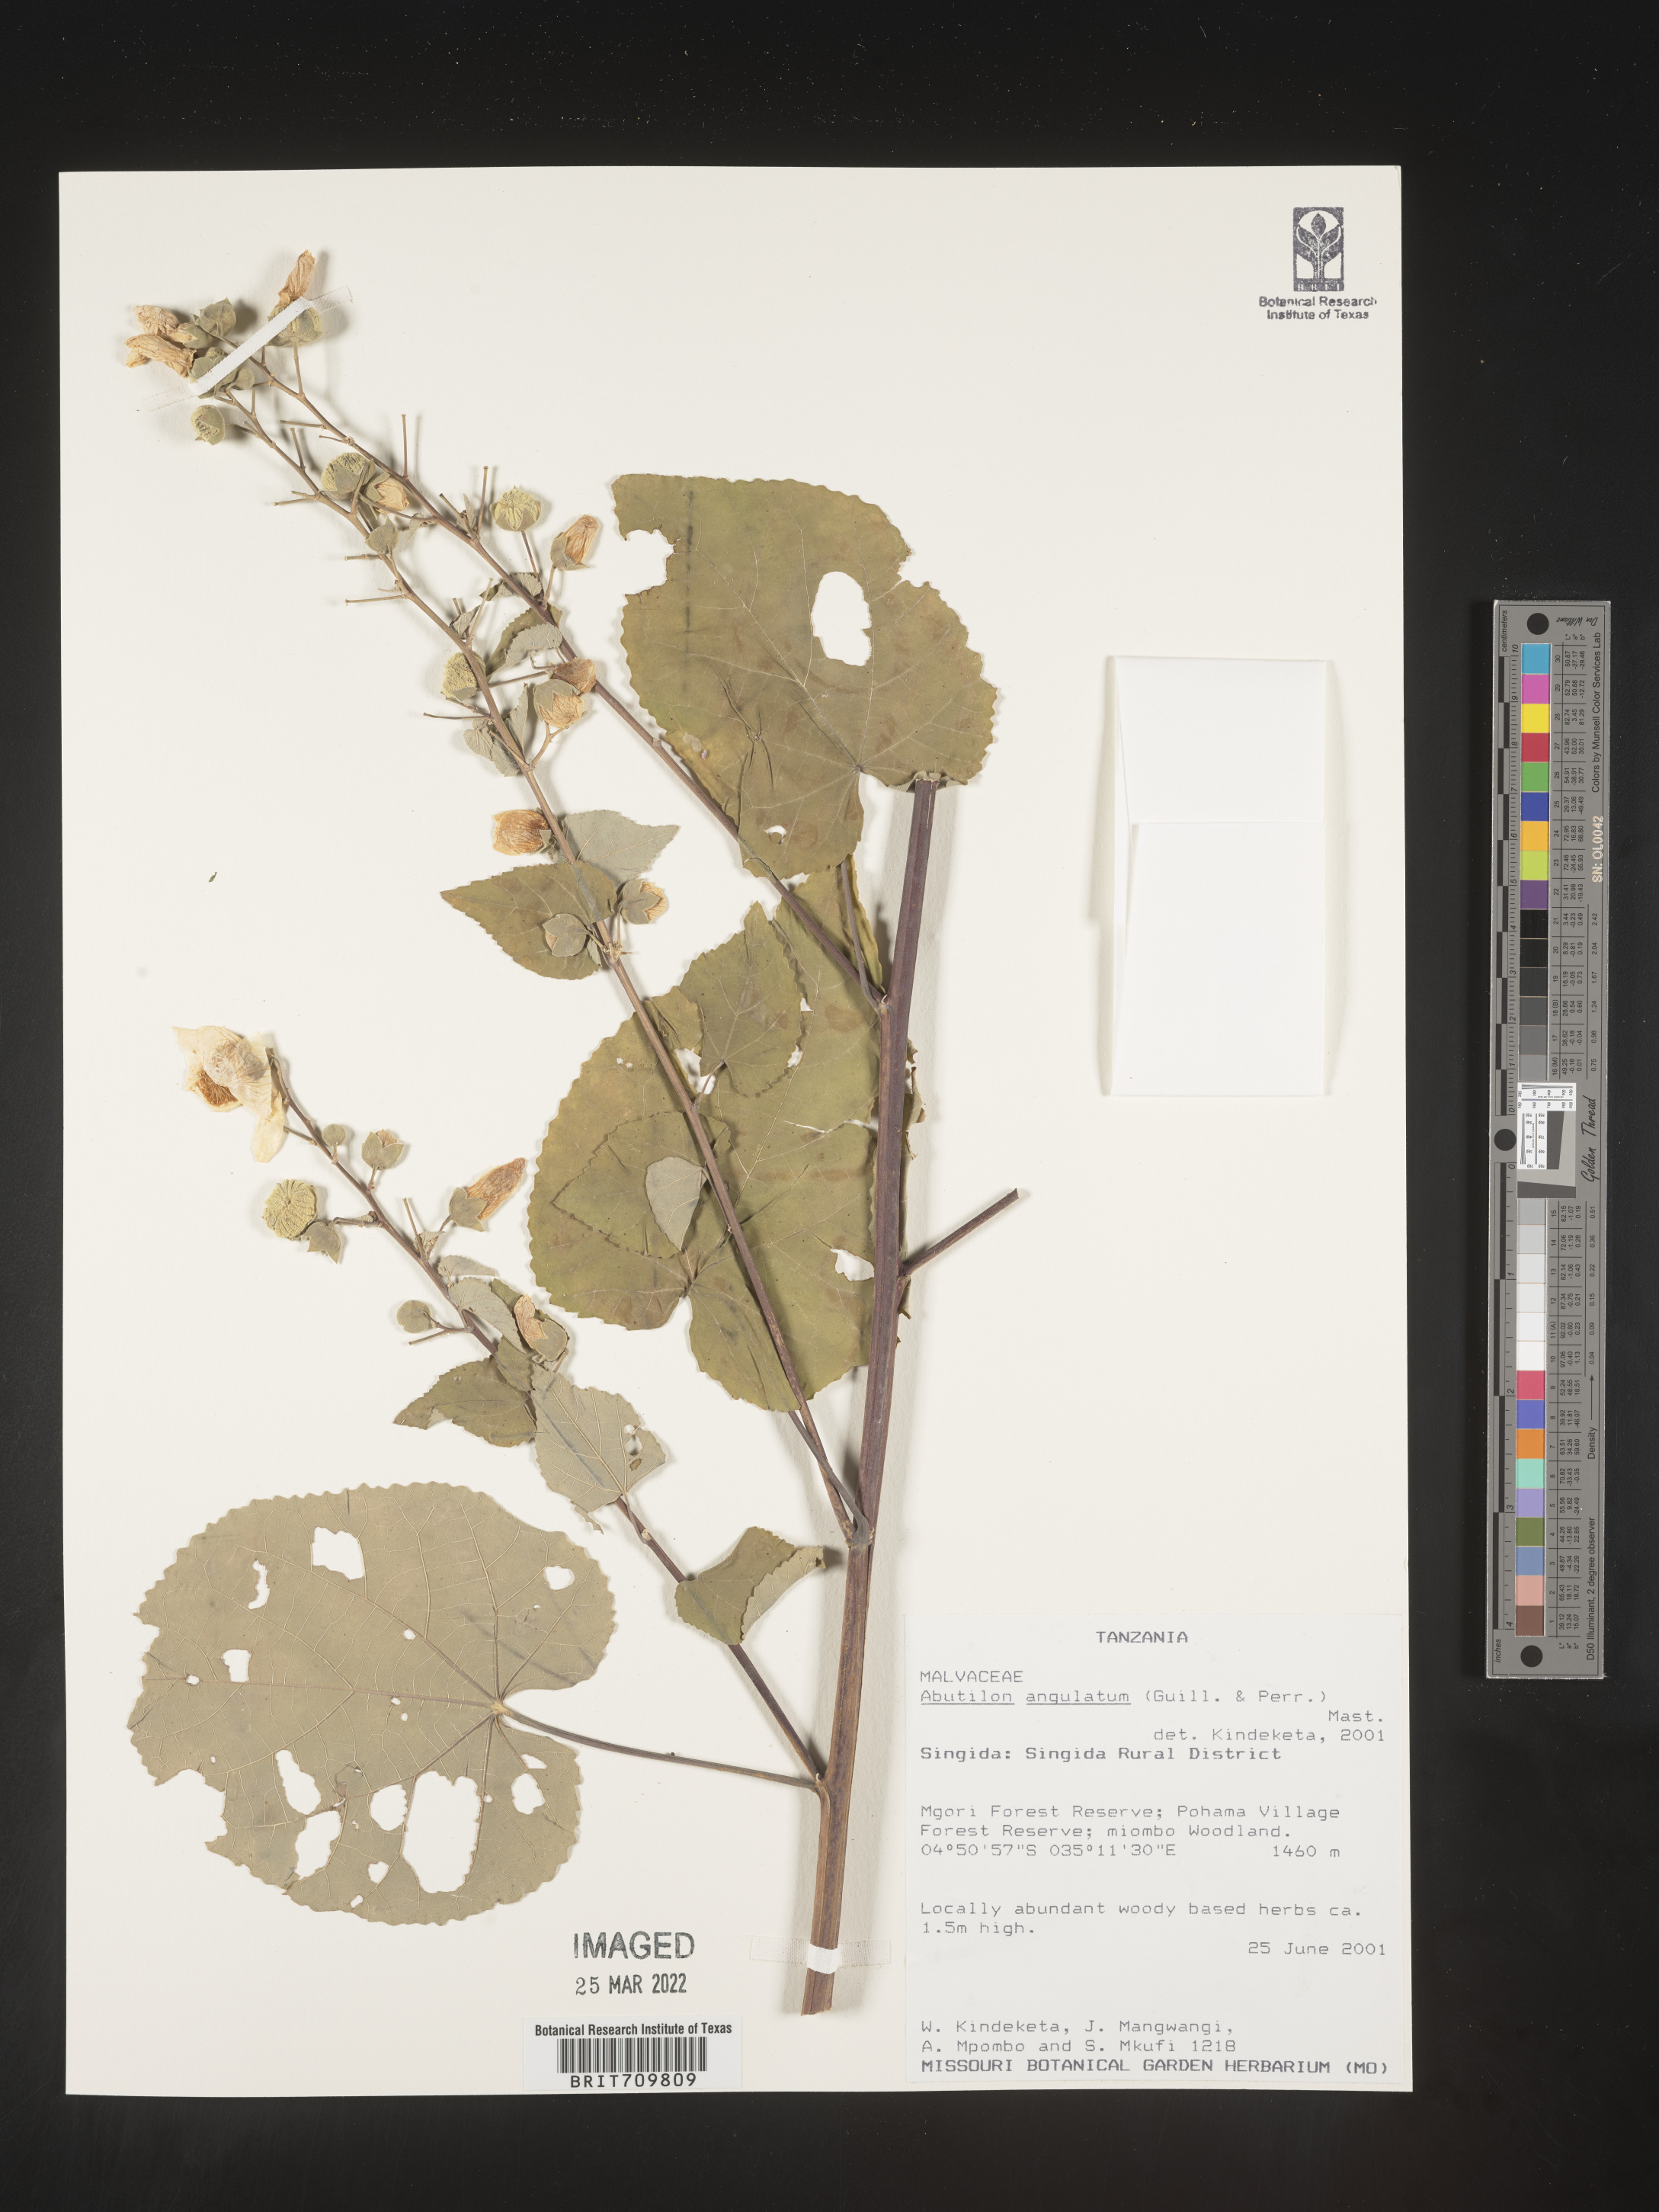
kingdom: Plantae
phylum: Tracheophyta
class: Magnoliopsida
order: Malvales
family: Malvaceae
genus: Abutilon
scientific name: Abutilon
